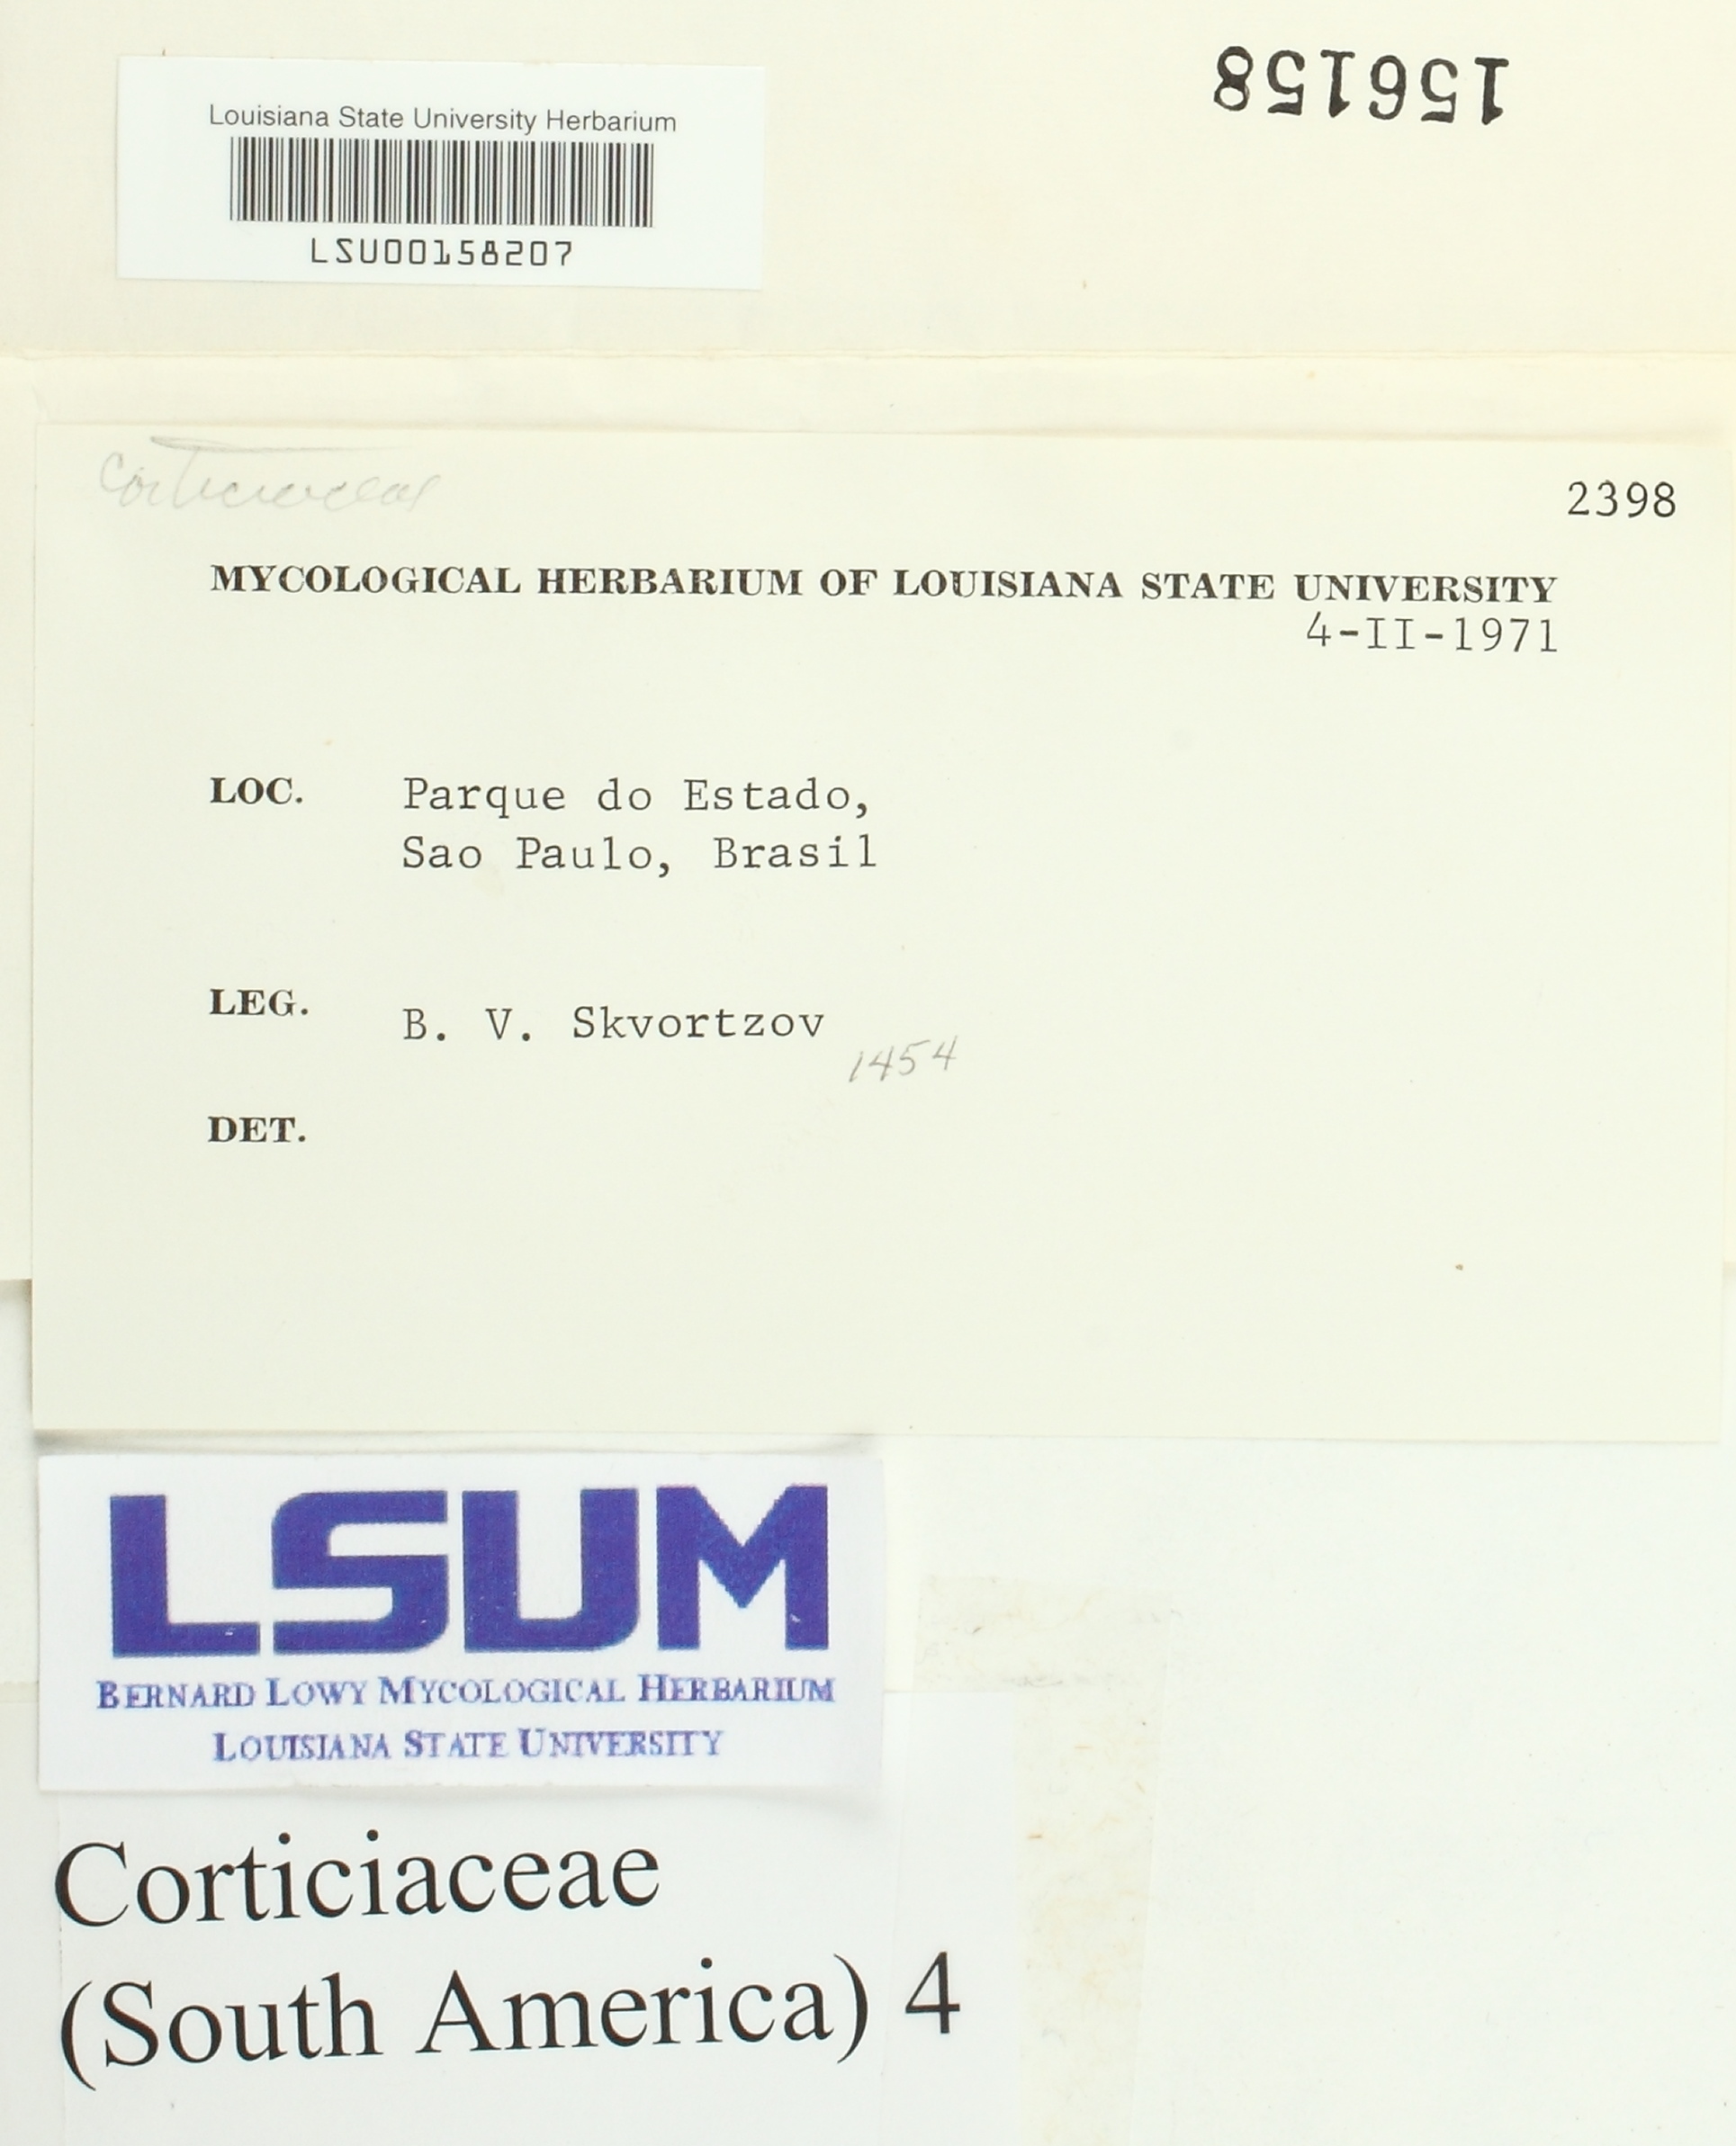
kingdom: Fungi
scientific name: Fungi
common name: Fungi
